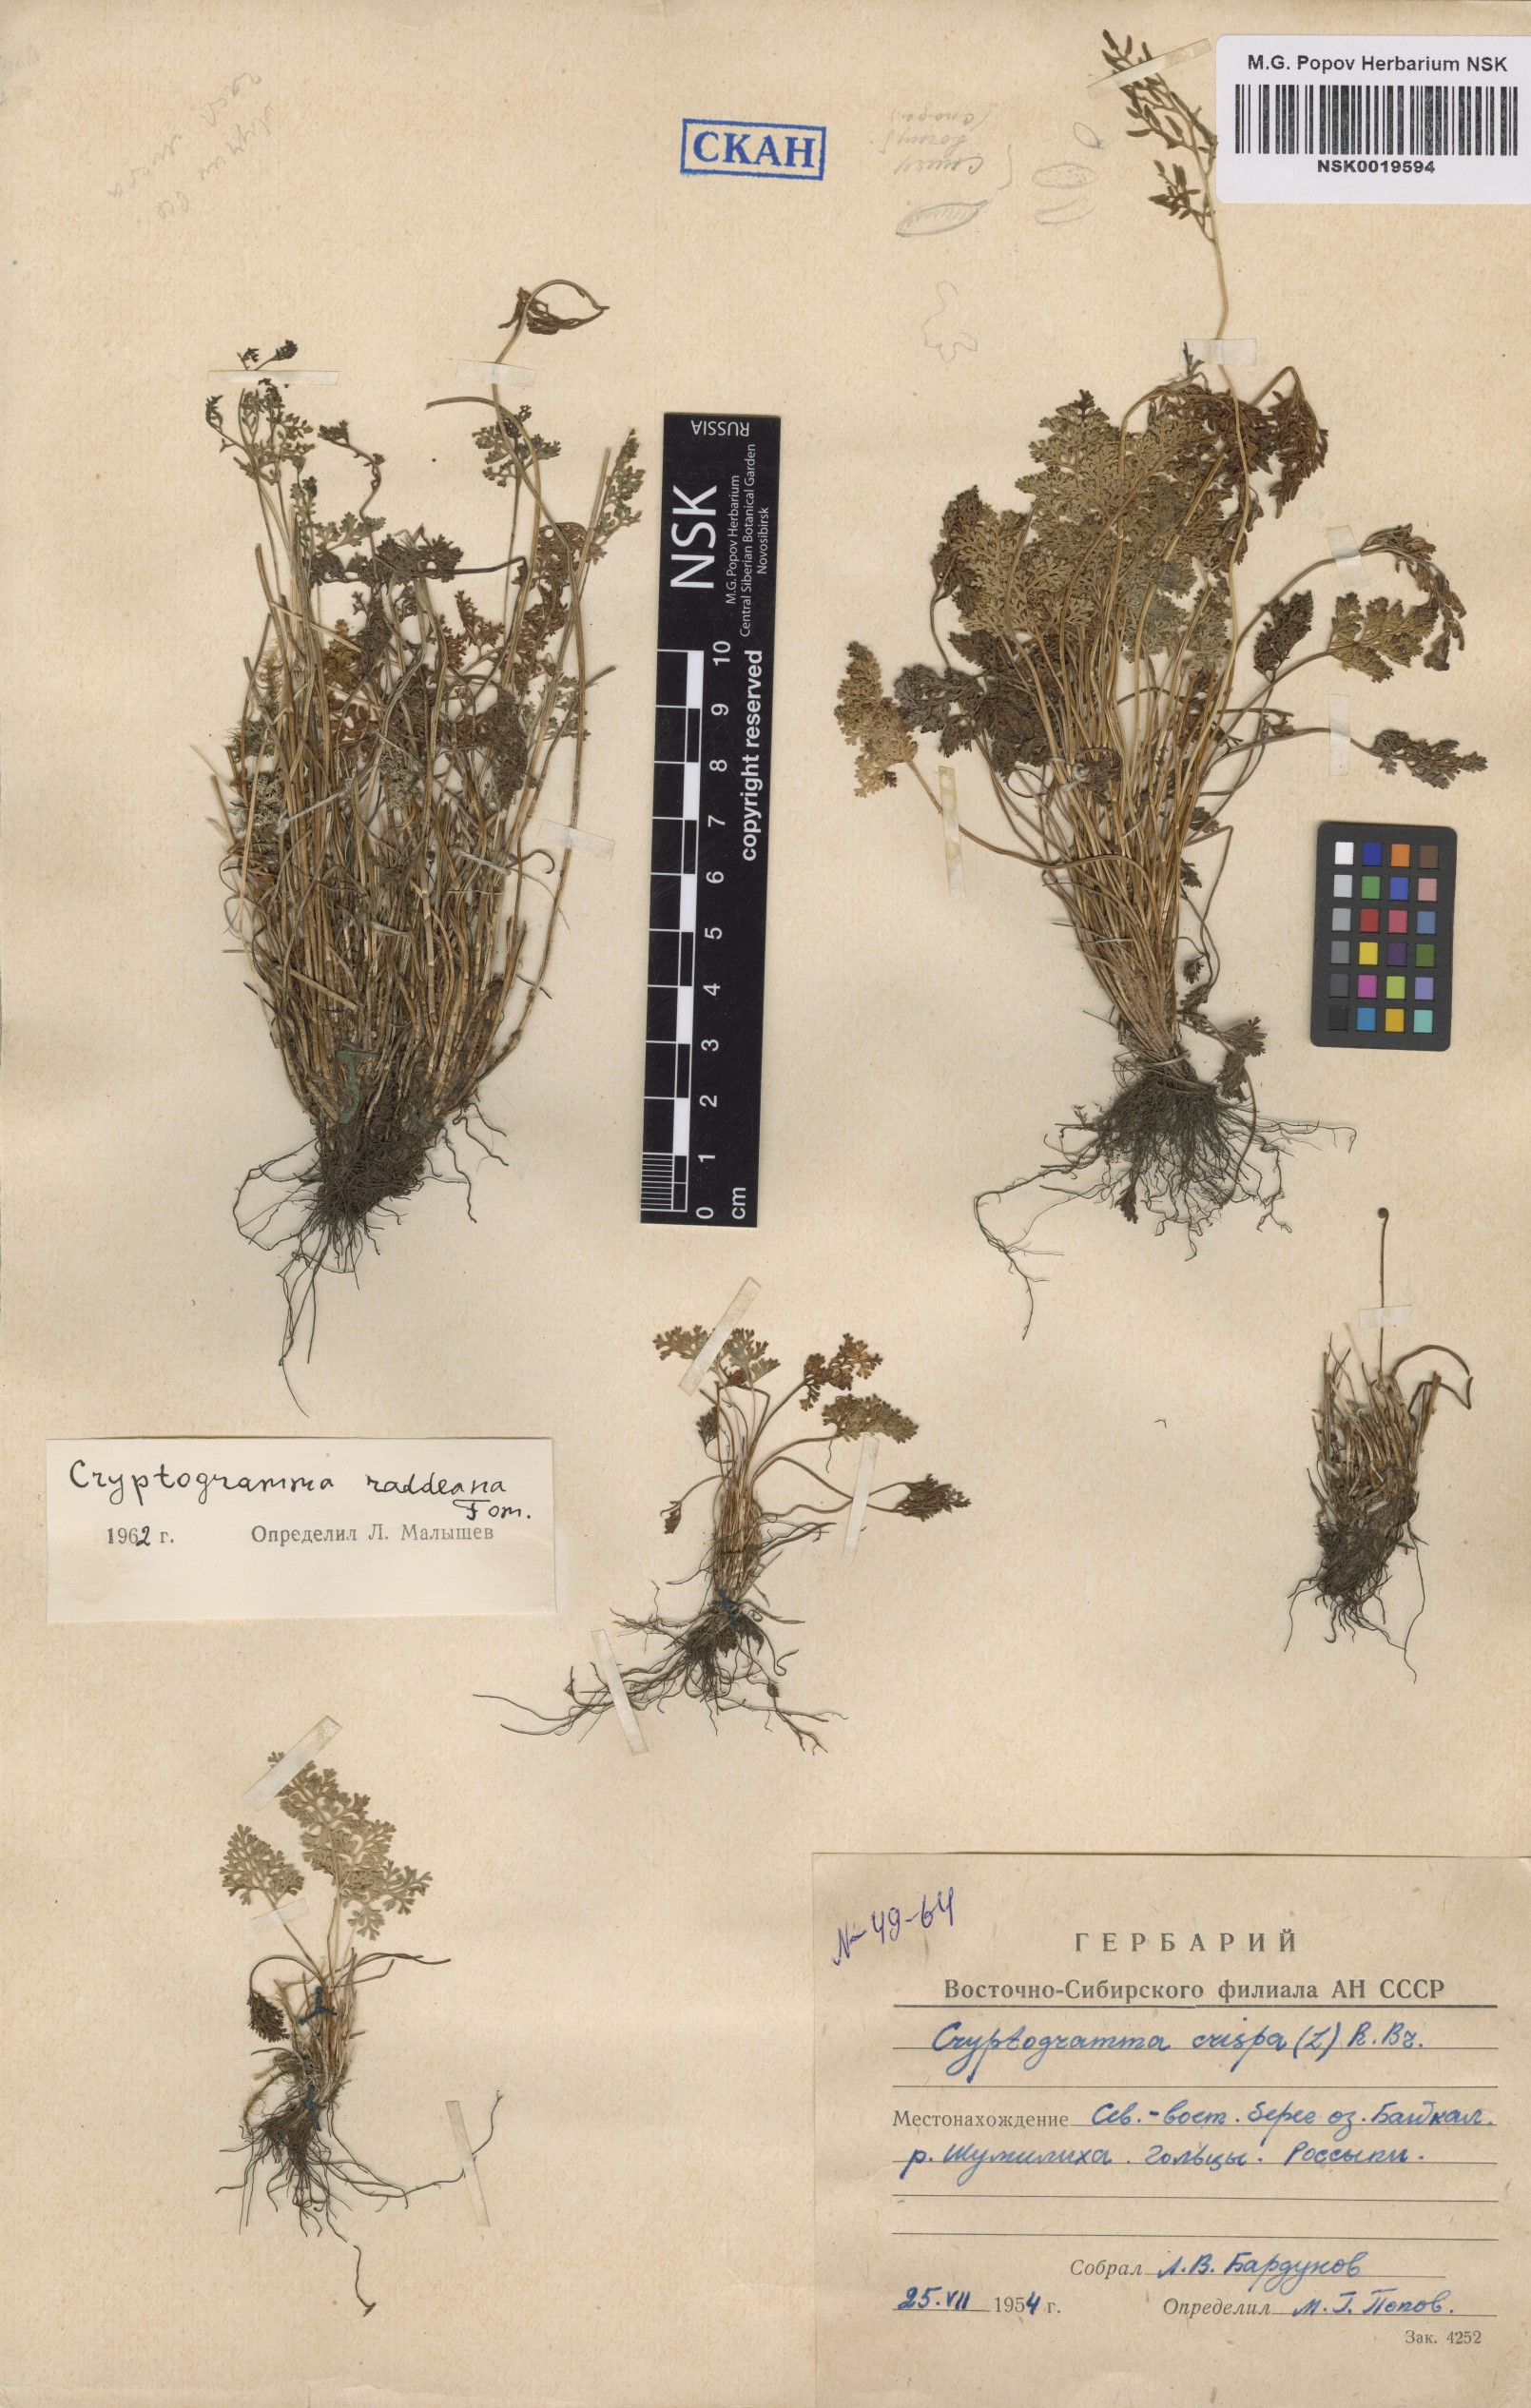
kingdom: Plantae
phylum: Tracheophyta
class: Polypodiopsida
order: Polypodiales
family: Pteridaceae
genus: Cryptogramma
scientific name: Cryptogramma brunoniana
